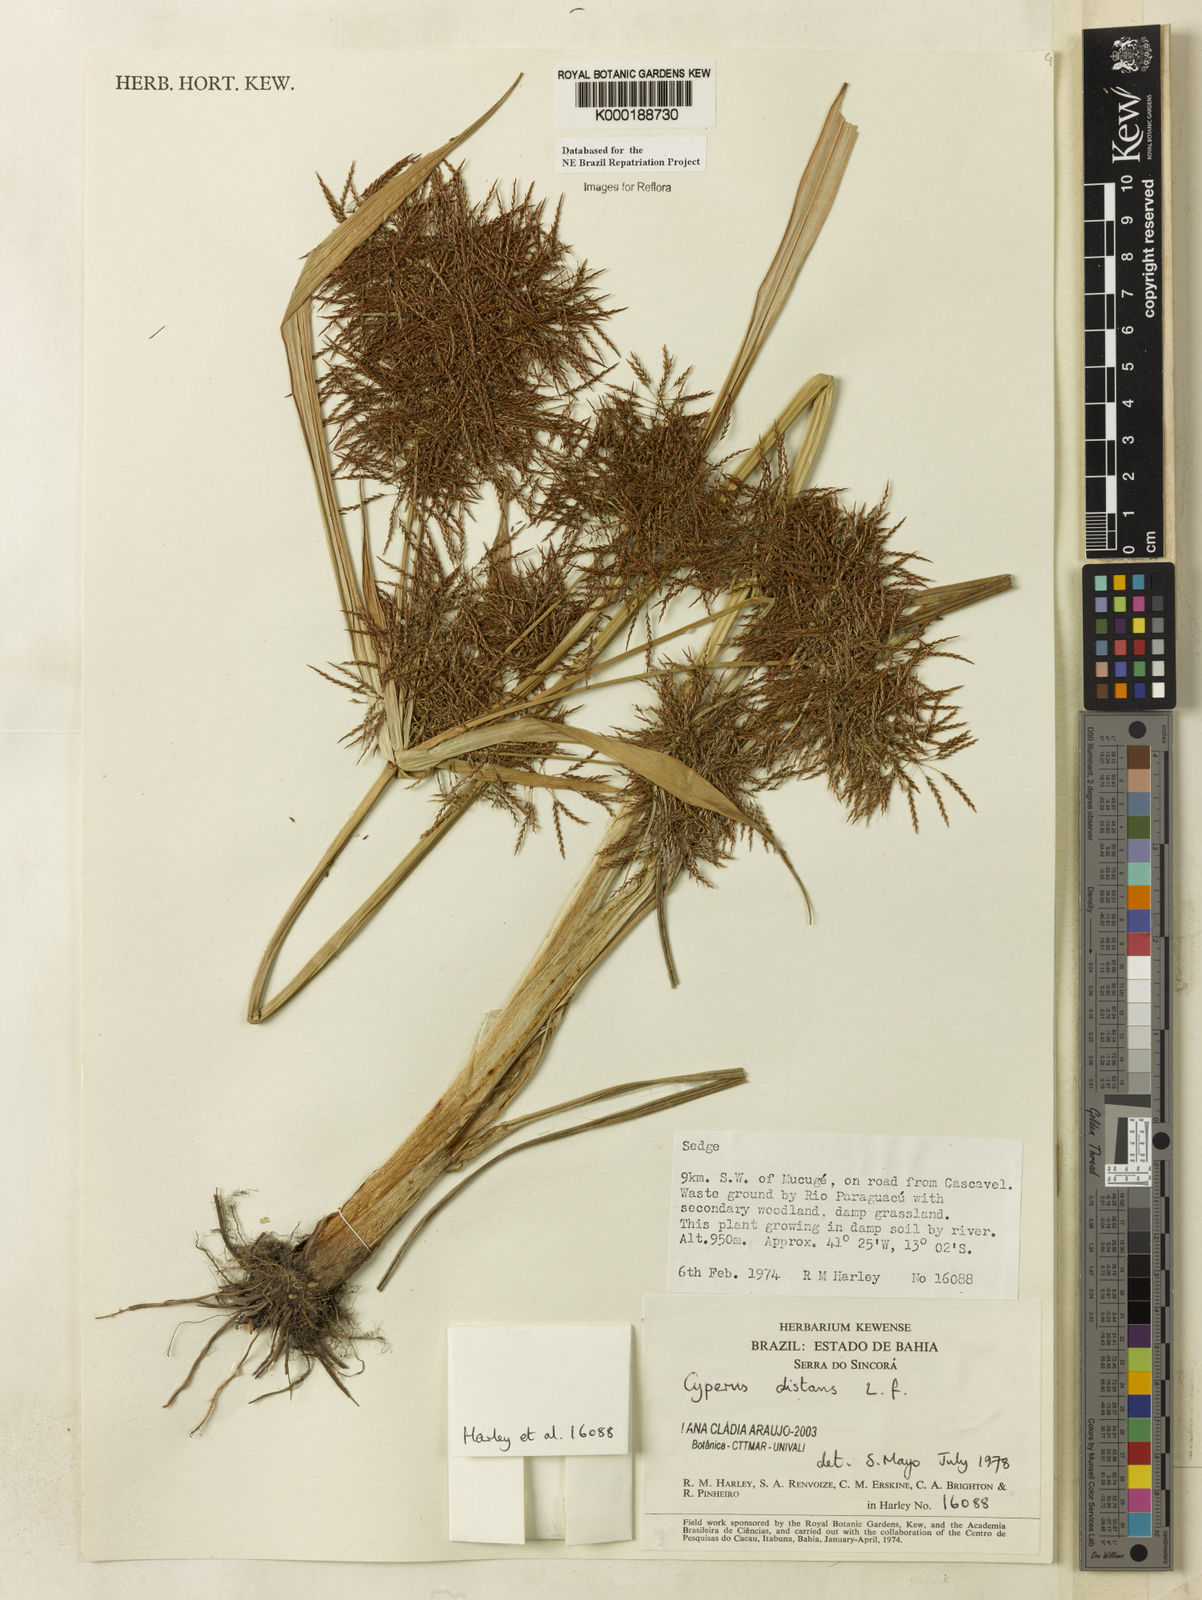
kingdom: Plantae
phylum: Tracheophyta
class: Liliopsida
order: Poales
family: Cyperaceae
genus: Cyperus
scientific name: Cyperus distans
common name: Slender cyperus
